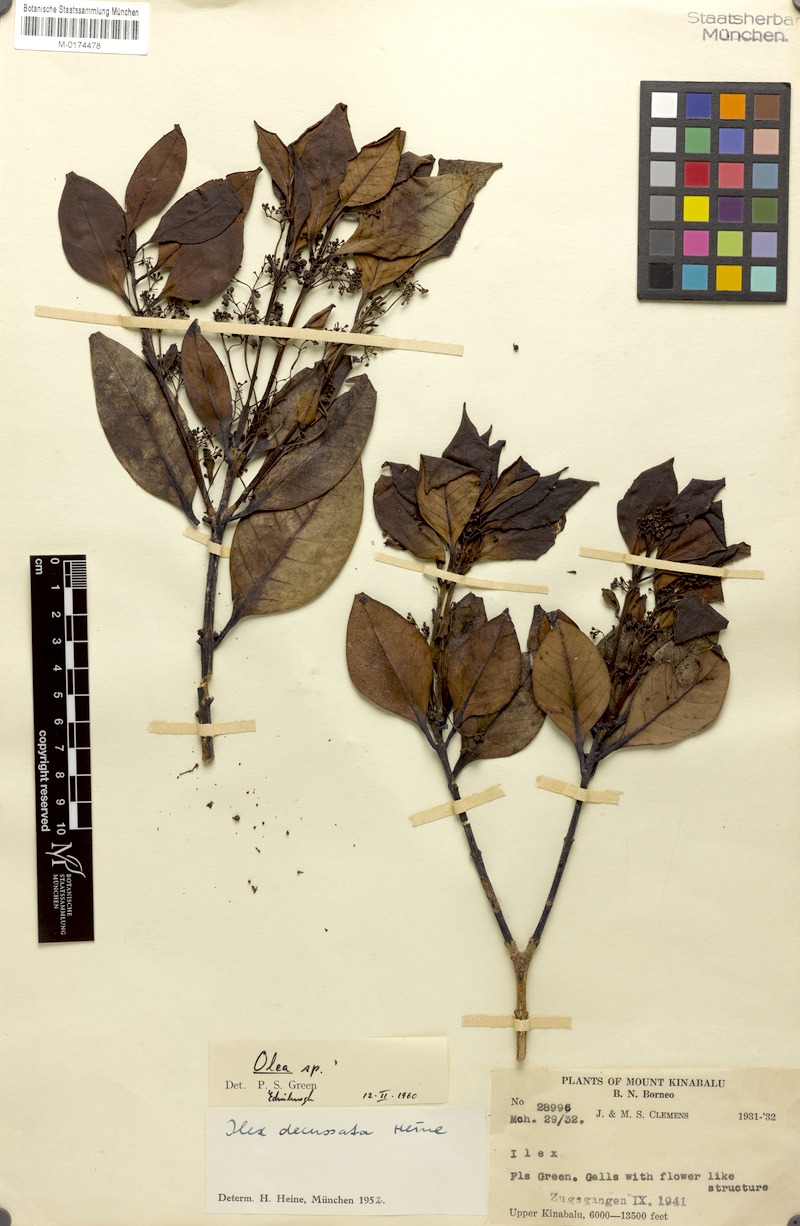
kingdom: Plantae
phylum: Tracheophyta
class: Magnoliopsida
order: Lamiales
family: Oleaceae
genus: Tetrapilus
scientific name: Tetrapilus rubrovenius
